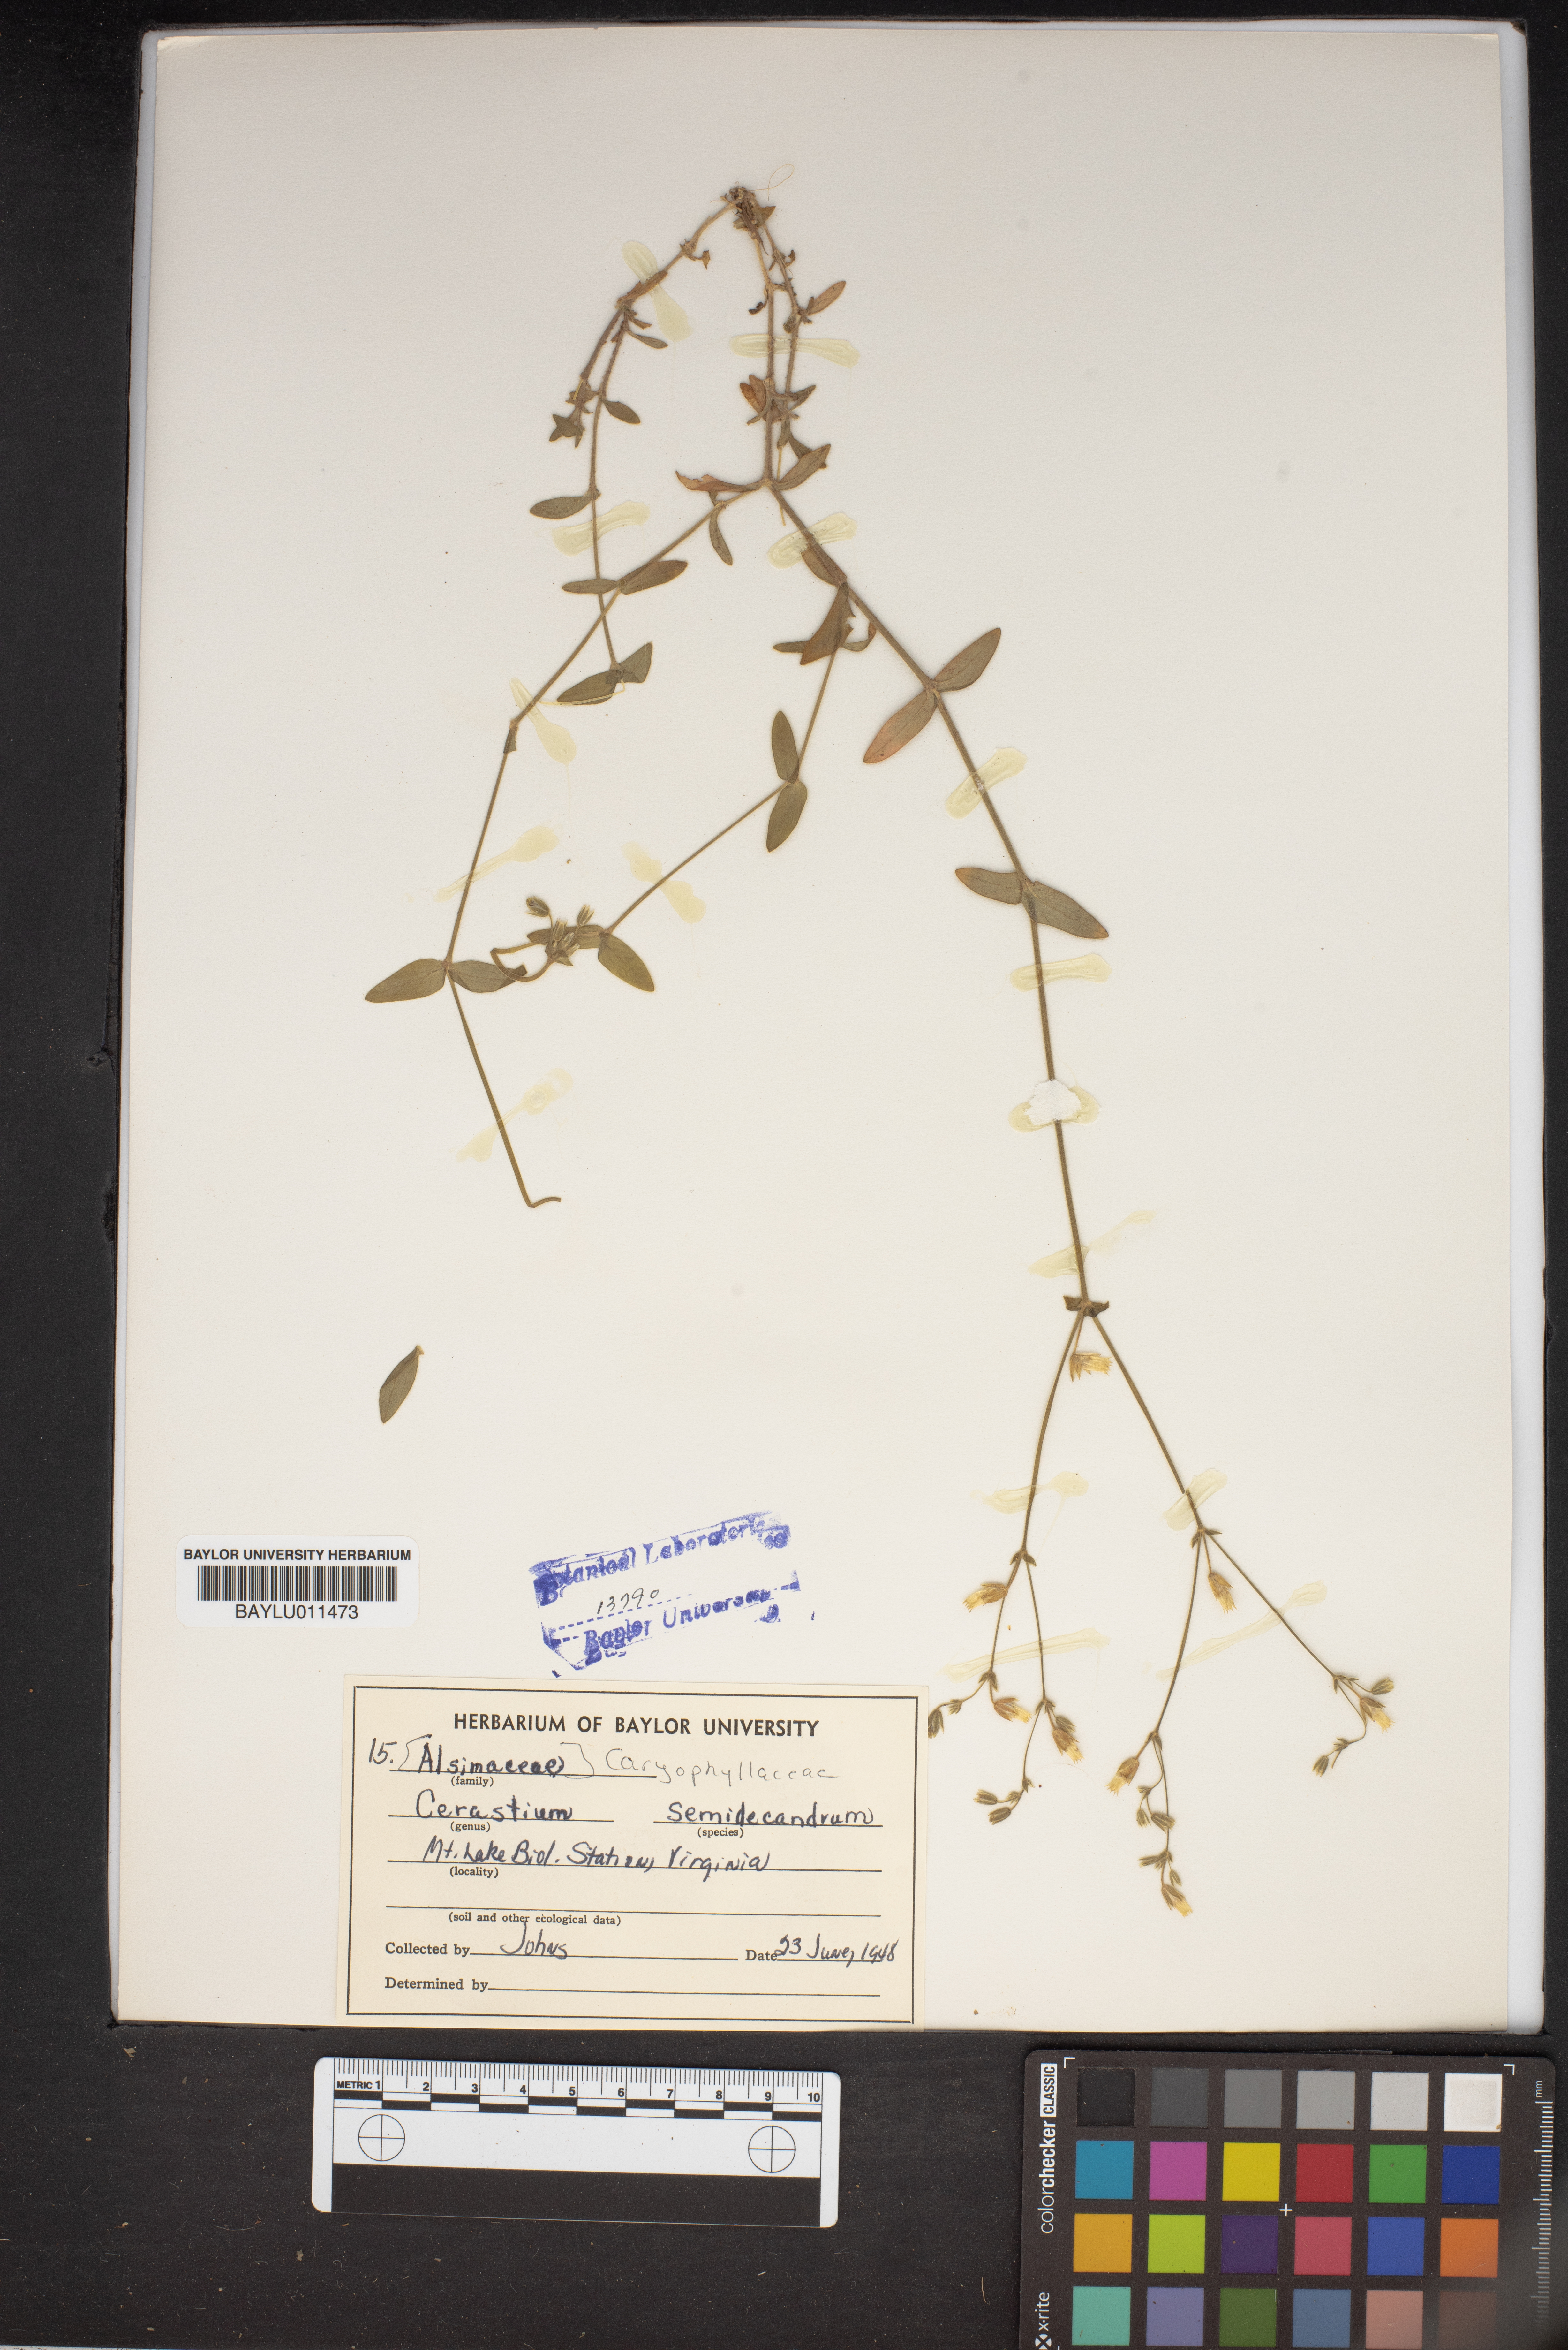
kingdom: Plantae
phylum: Tracheophyta
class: Magnoliopsida
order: Caryophyllales
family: Caryophyllaceae
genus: Cerastium
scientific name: Cerastium semidecandrum
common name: Little mouse-ear
